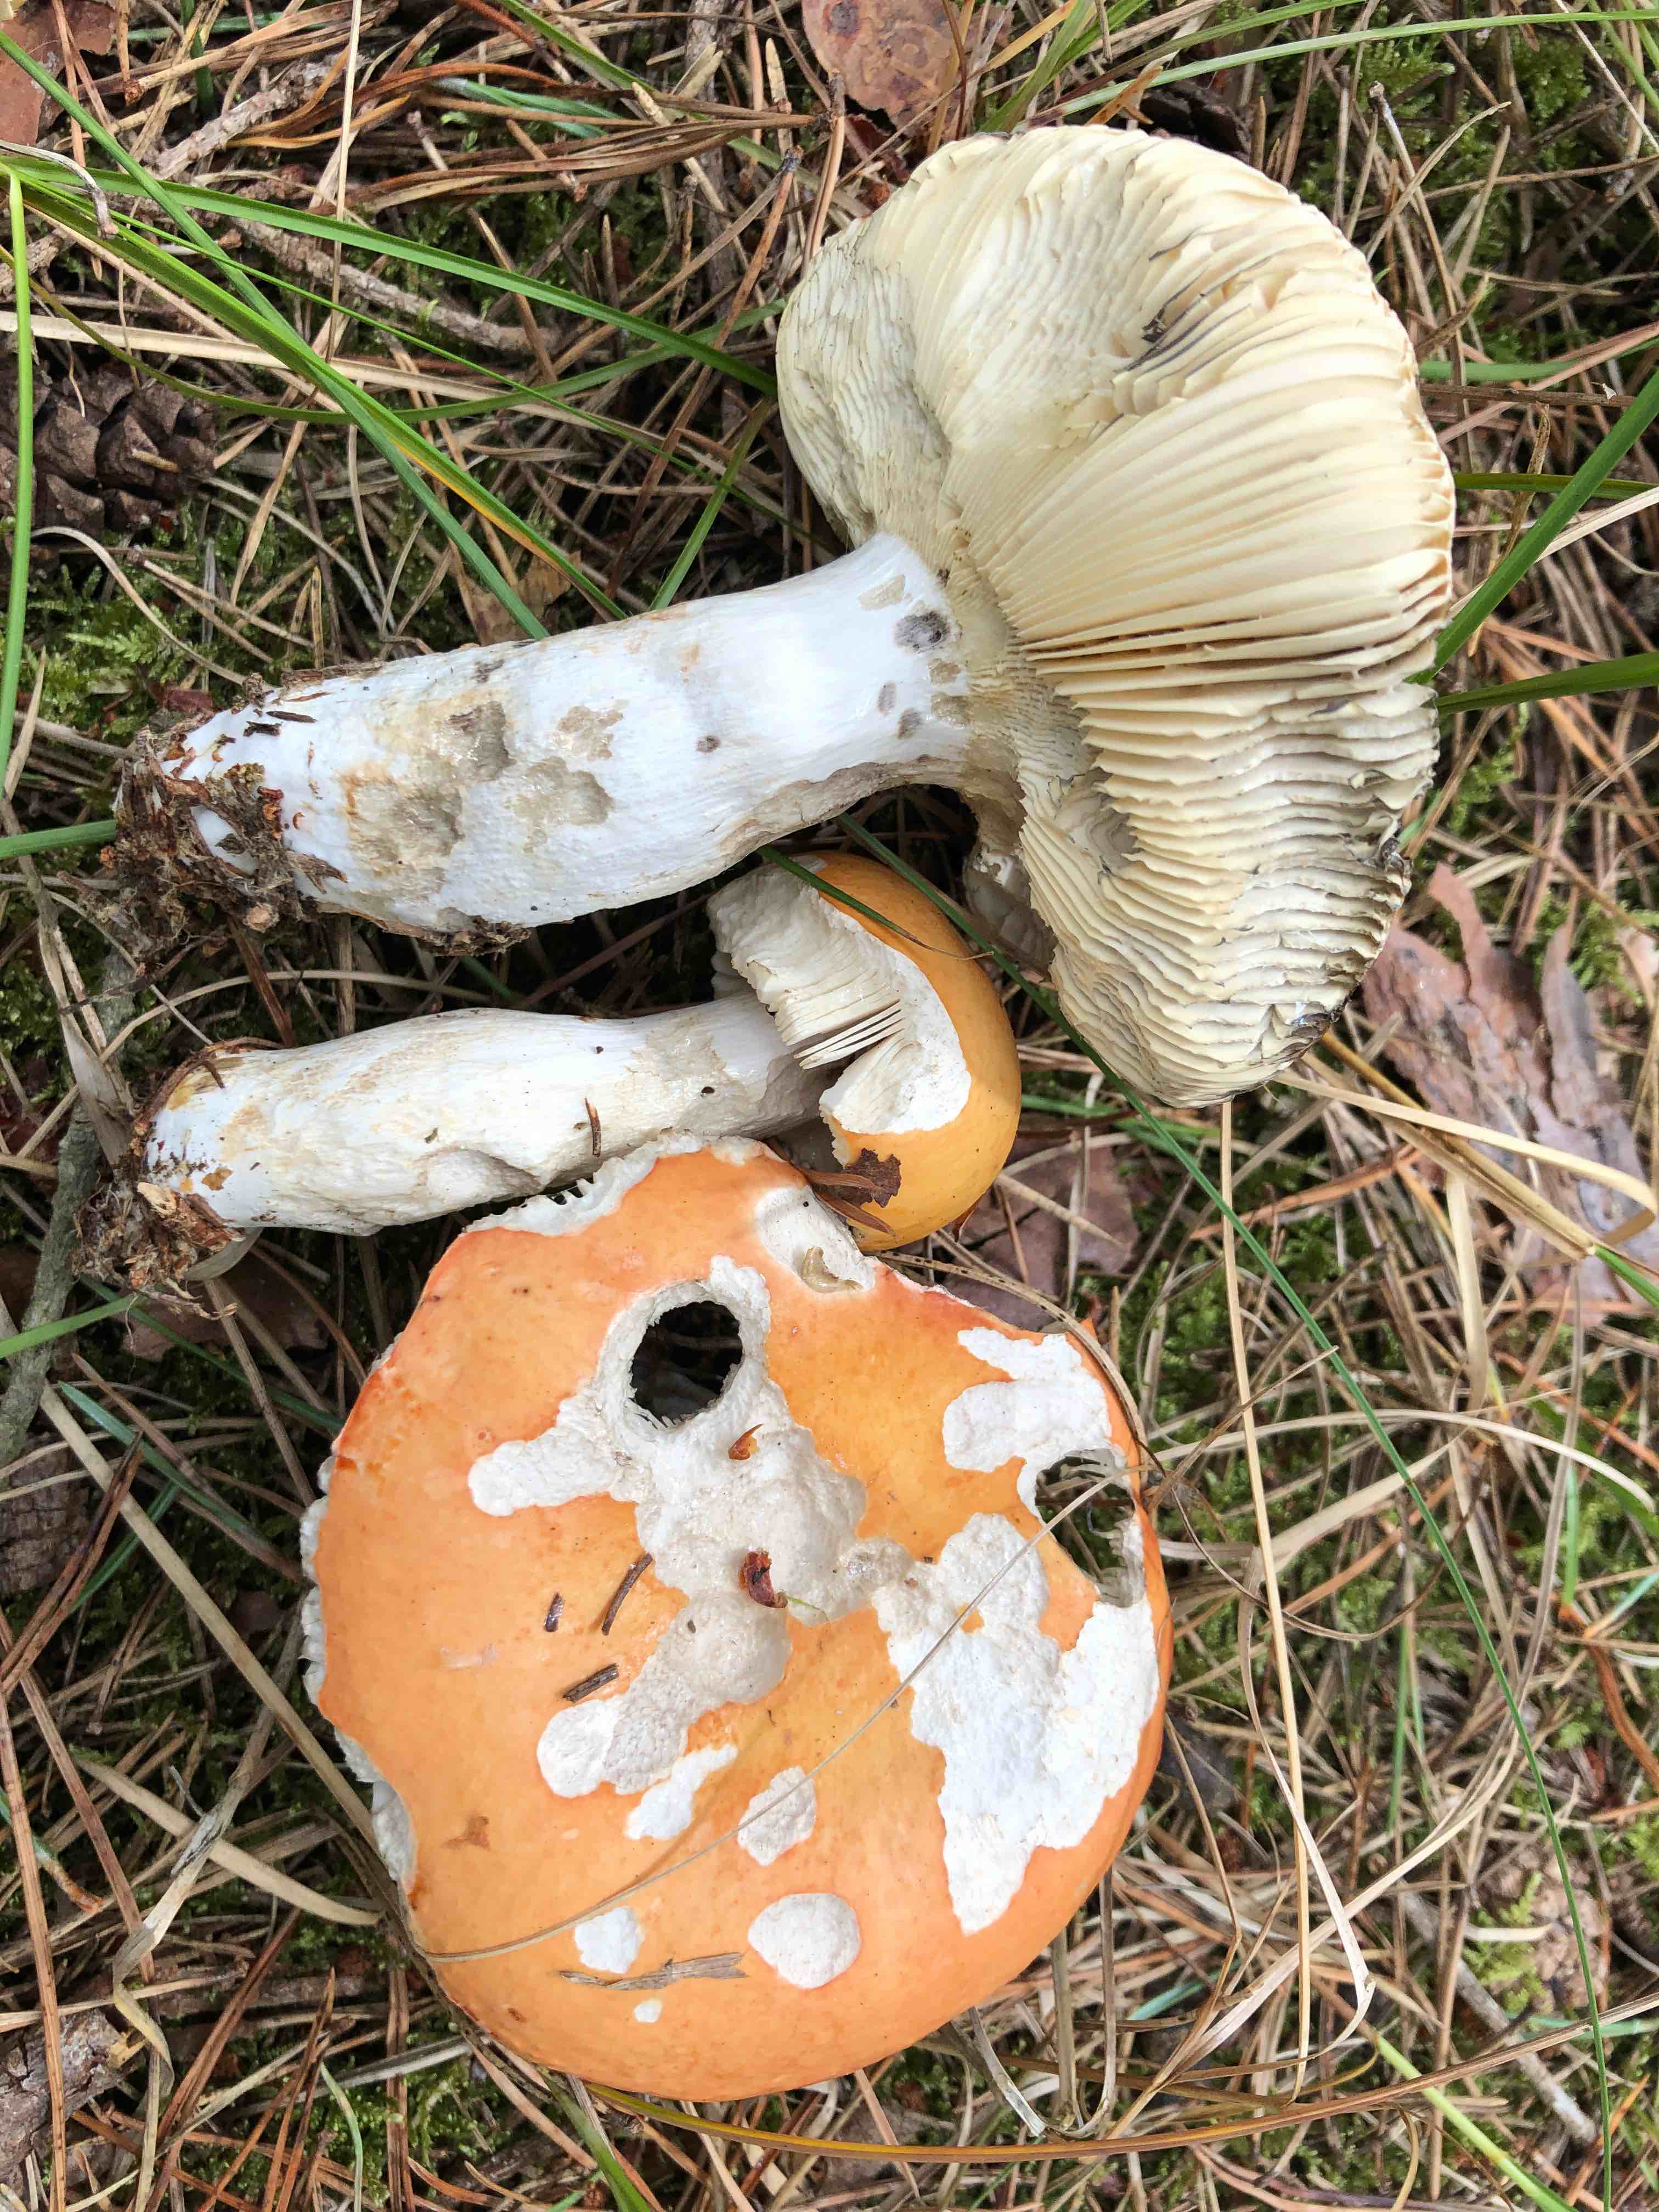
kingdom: Fungi
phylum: Basidiomycota
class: Agaricomycetes
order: Russulales
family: Russulaceae
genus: Russula
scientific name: Russula decolorans
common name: afblegende skørhat
